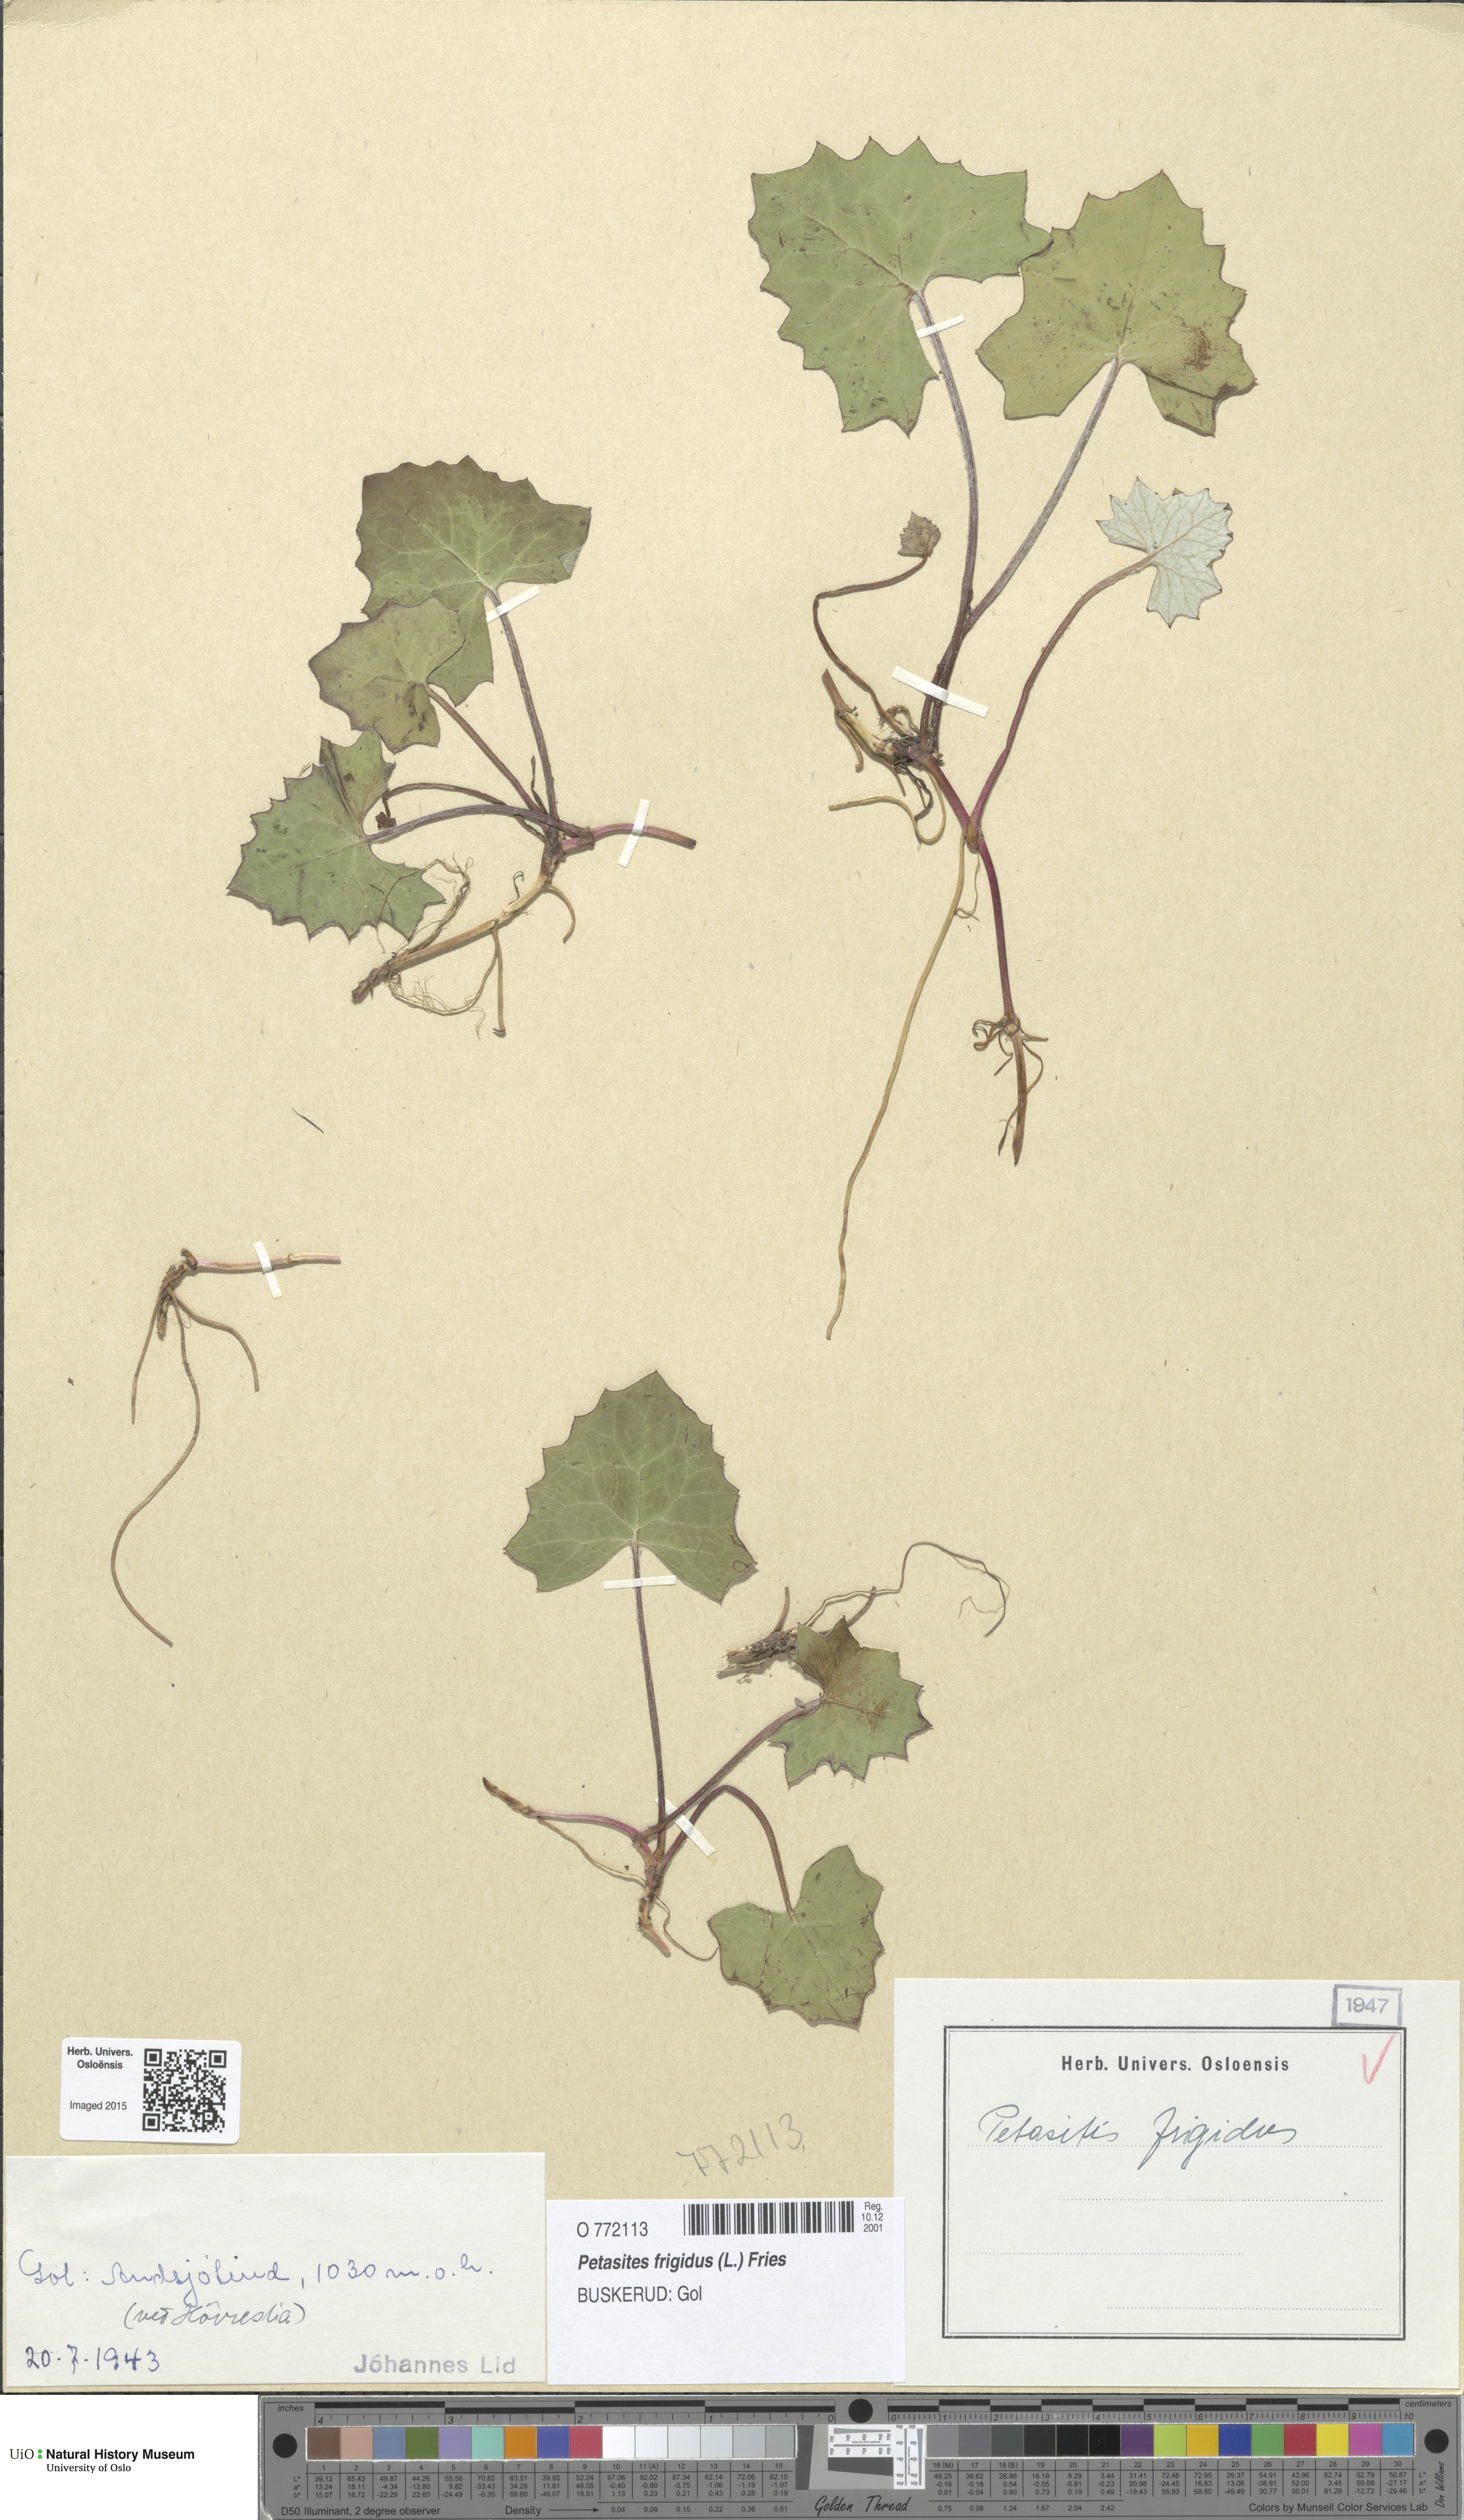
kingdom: Plantae
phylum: Tracheophyta
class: Magnoliopsida
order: Asterales
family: Asteraceae
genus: Petasites
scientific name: Petasites frigidus
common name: Arctic butterbur
